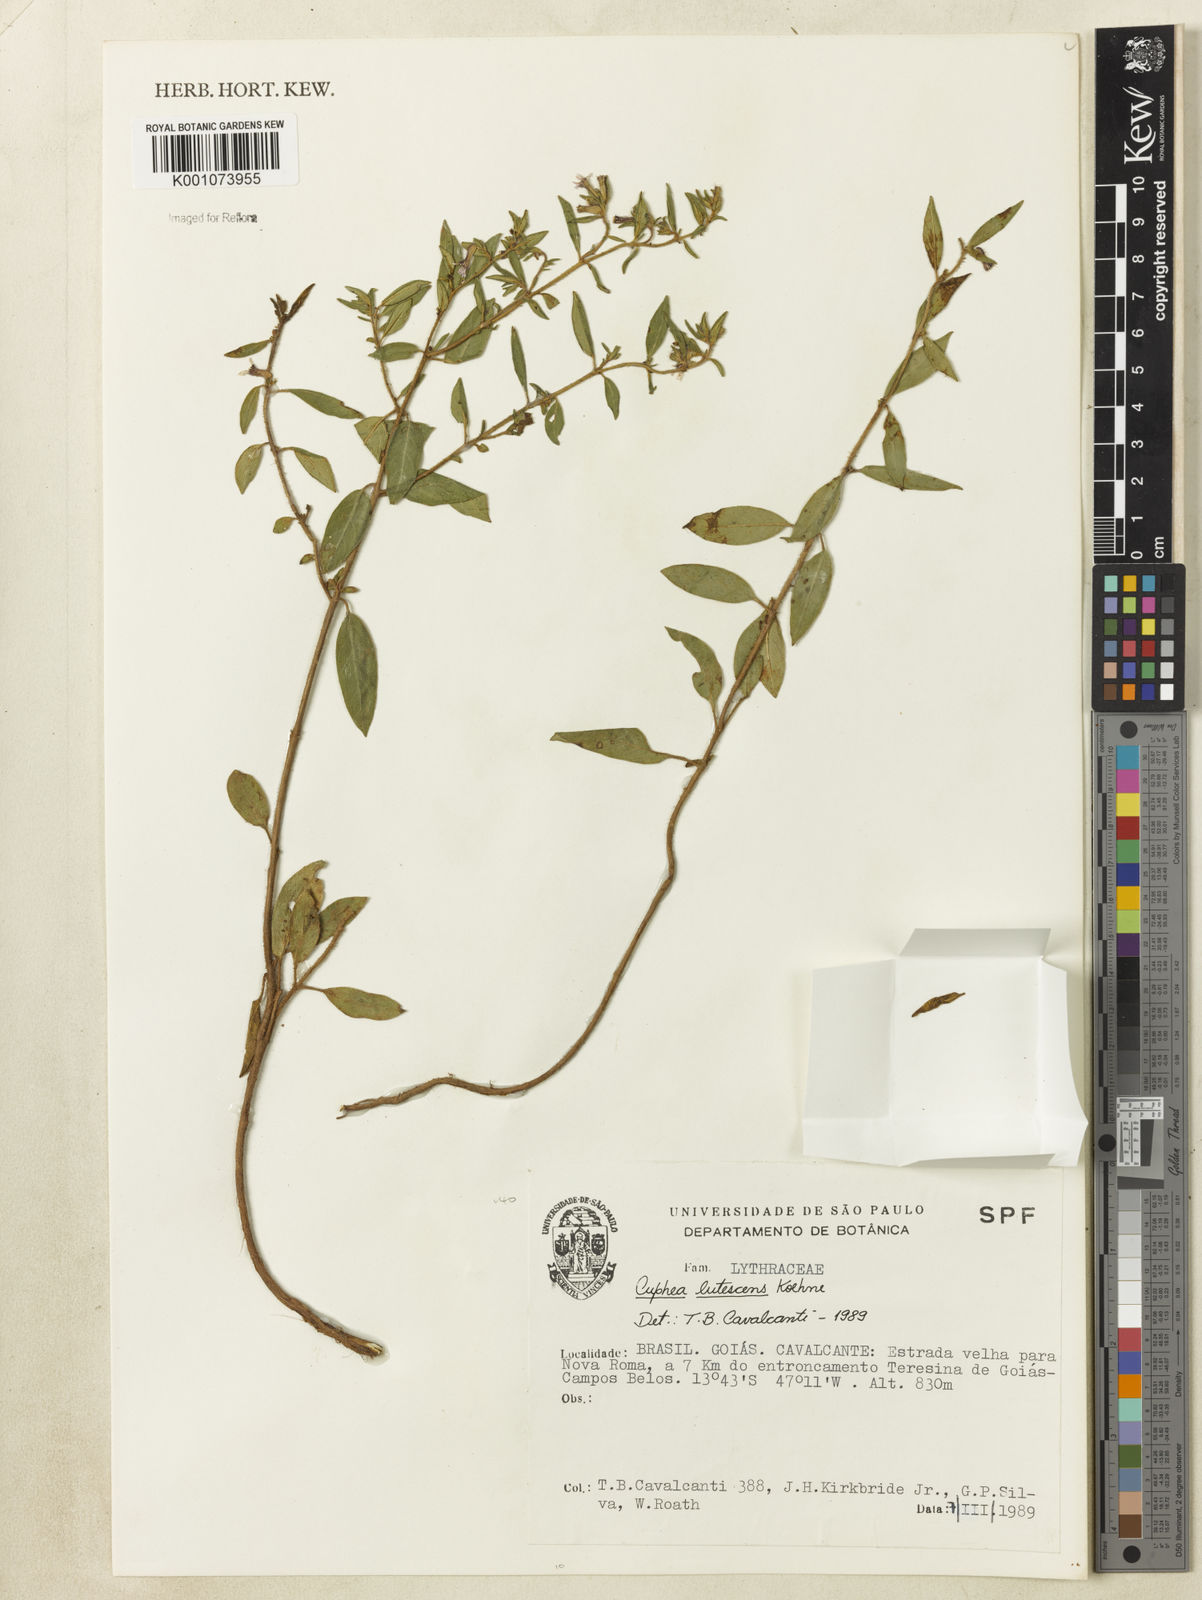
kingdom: Plantae
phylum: Tracheophyta
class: Magnoliopsida
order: Myrtales
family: Lythraceae
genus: Cuphea
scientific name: Cuphea lutescens
